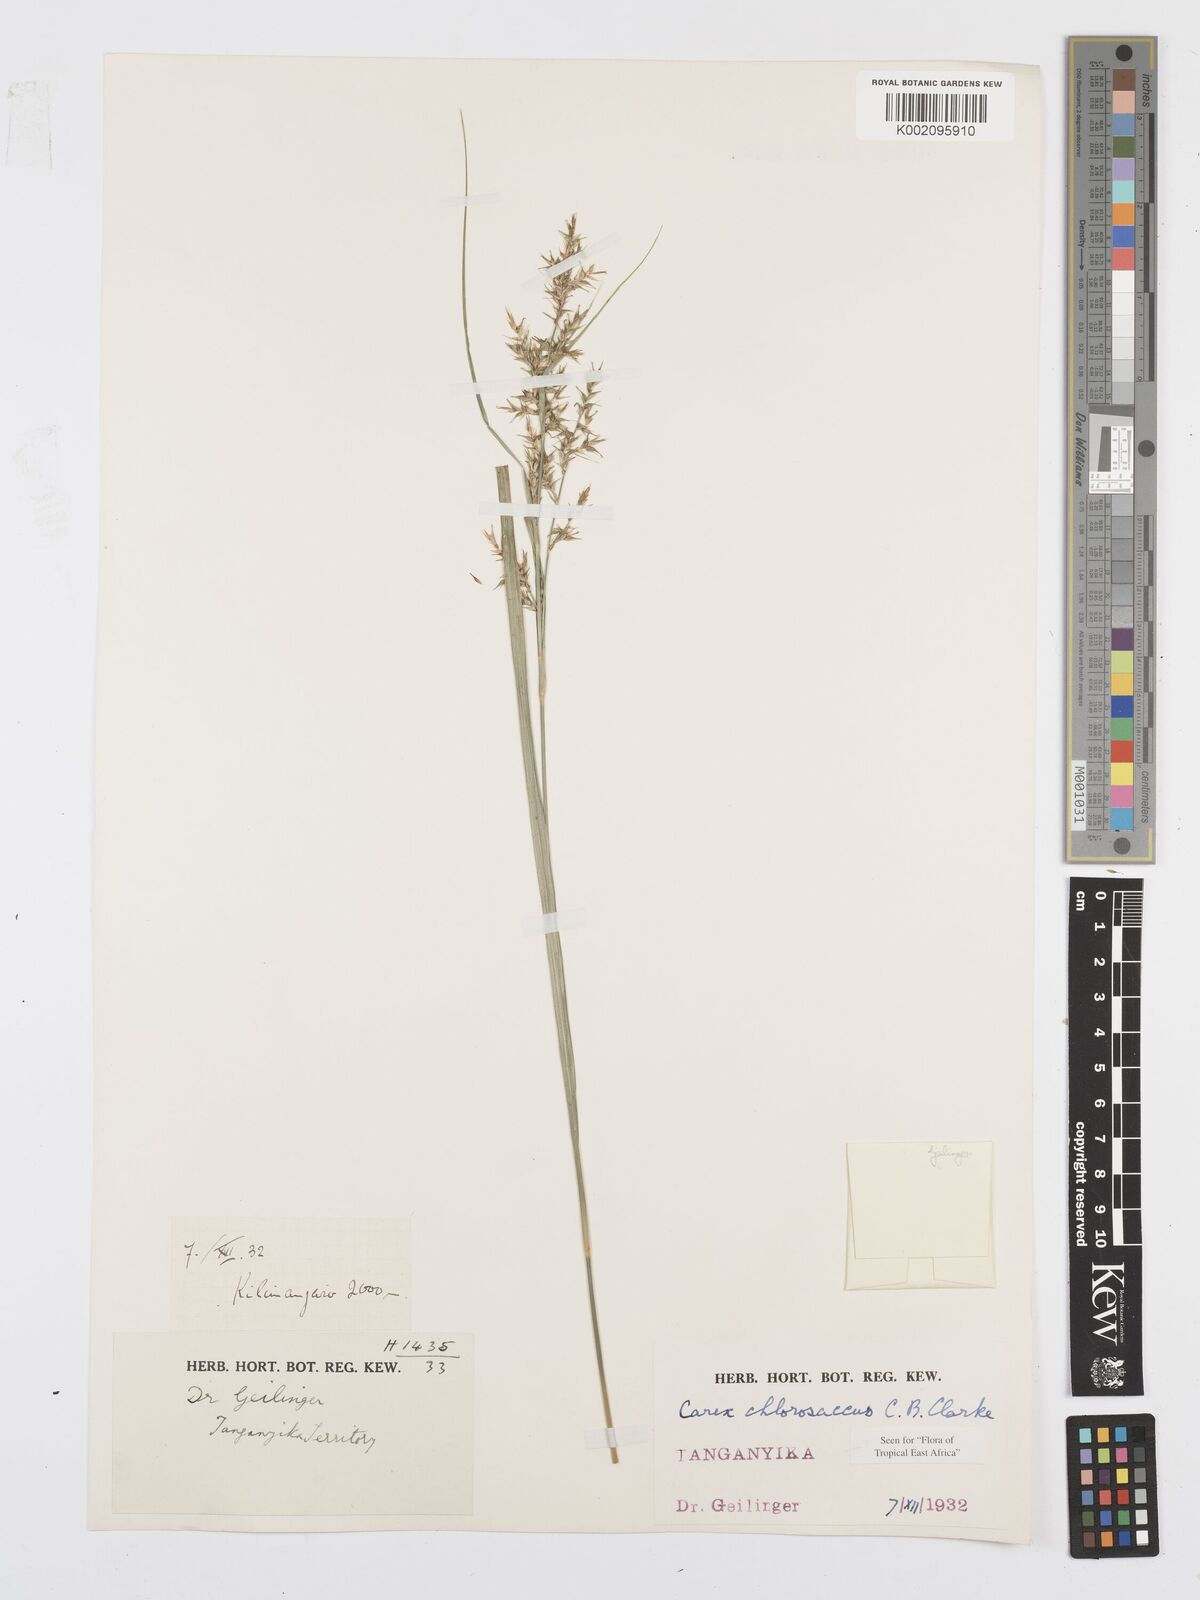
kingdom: Plantae
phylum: Tracheophyta
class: Liliopsida
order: Poales
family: Cyperaceae
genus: Carex
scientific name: Carex chlorosaccus
